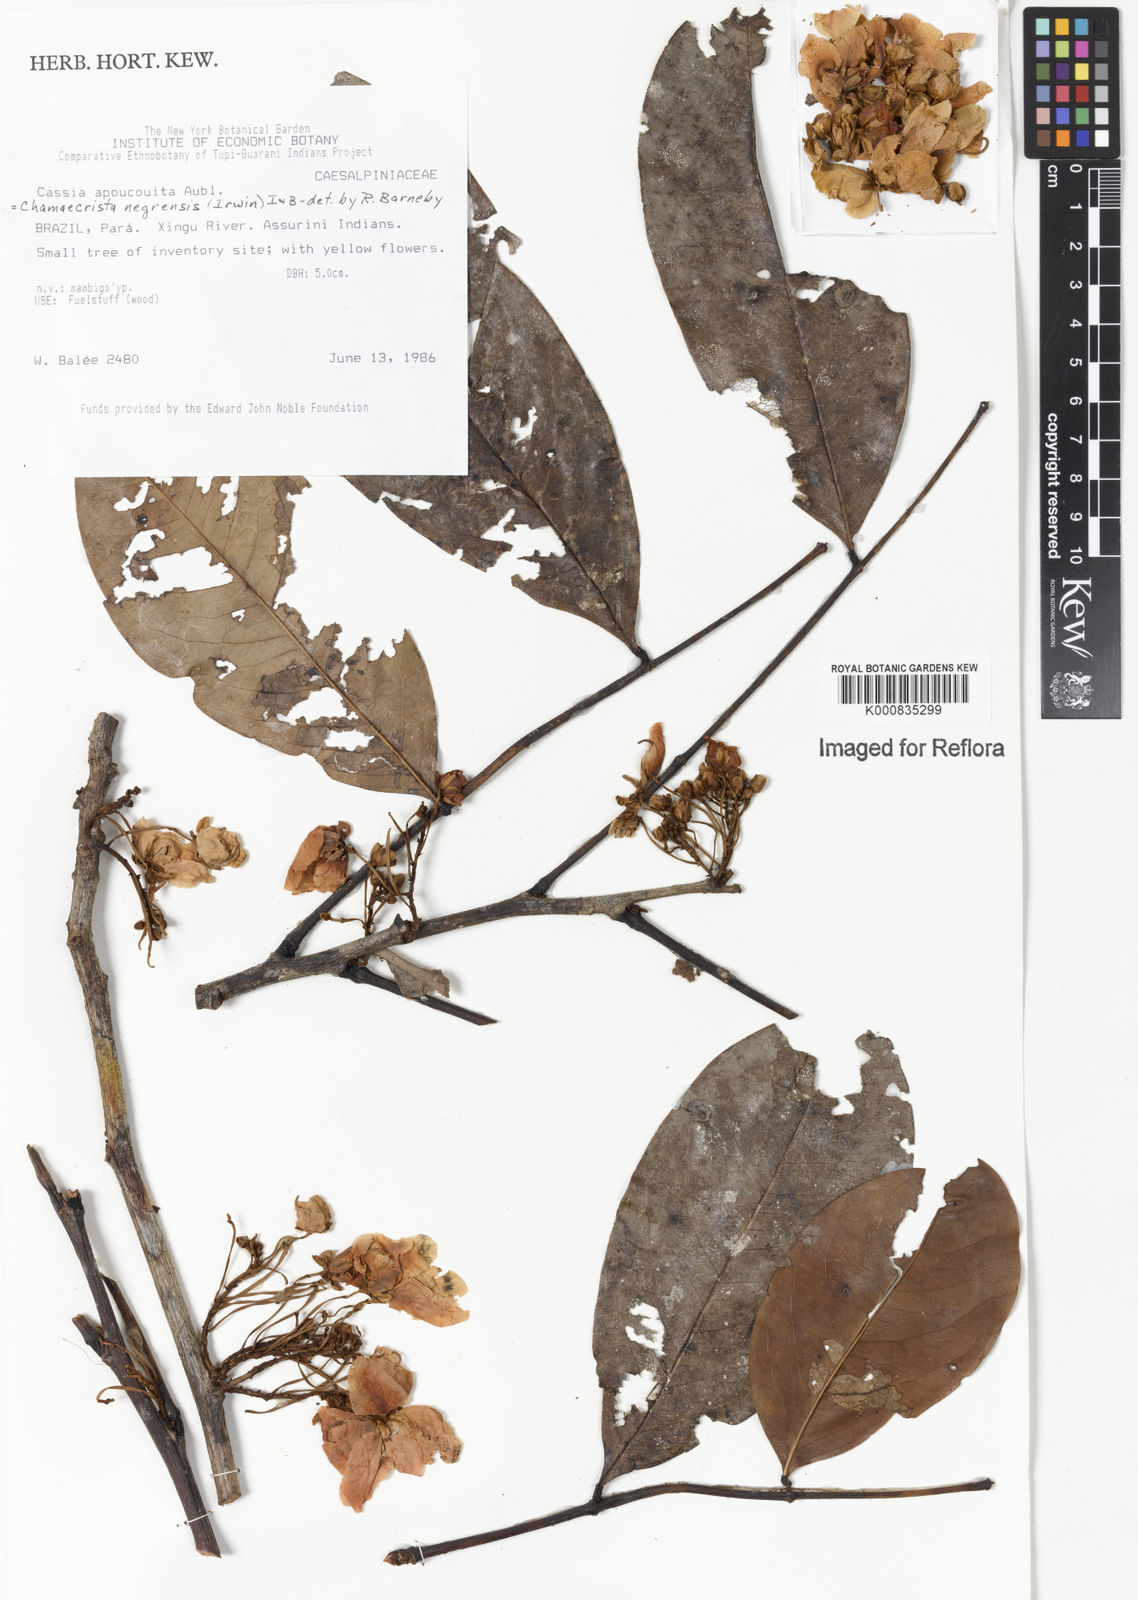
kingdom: Plantae
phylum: Tracheophyta
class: Magnoliopsida
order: Fabales
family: Fabaceae
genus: Chamaecrista
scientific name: Chamaecrista negrensis
